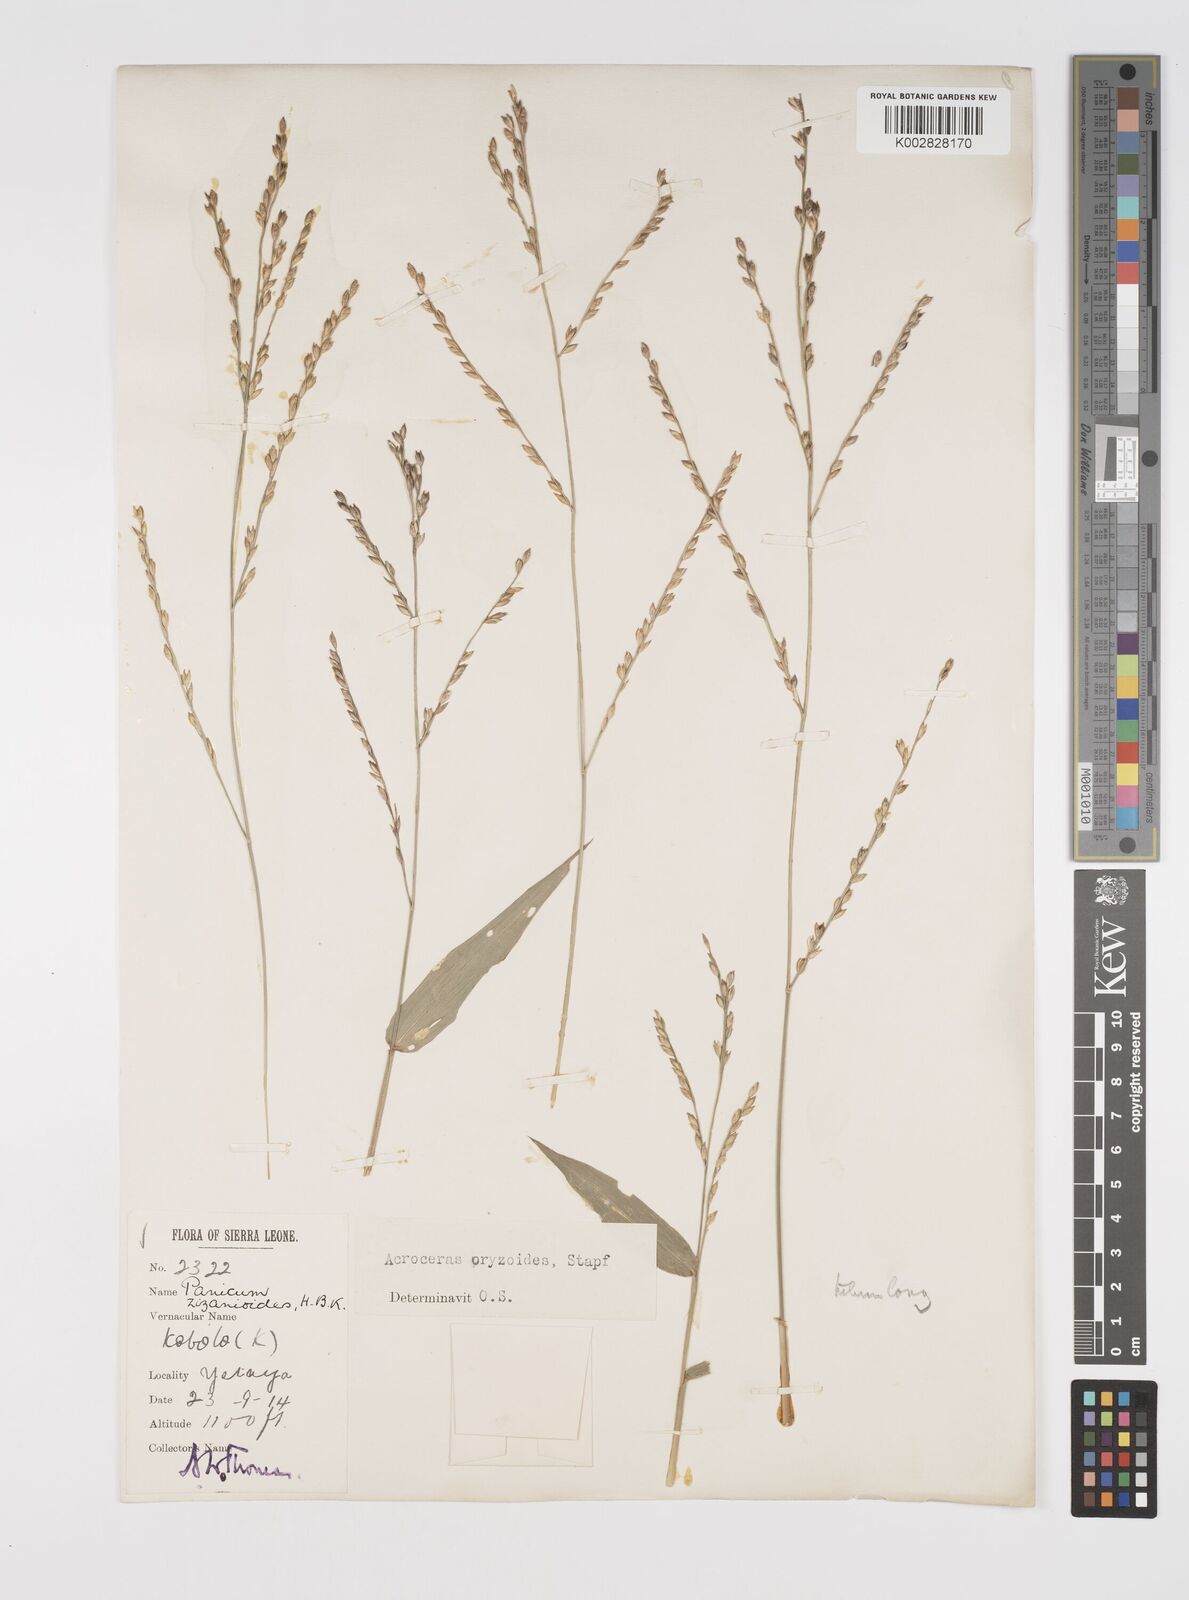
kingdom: Plantae
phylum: Tracheophyta
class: Liliopsida
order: Poales
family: Poaceae
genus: Acroceras
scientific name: Acroceras zizanioides
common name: Oat grass
